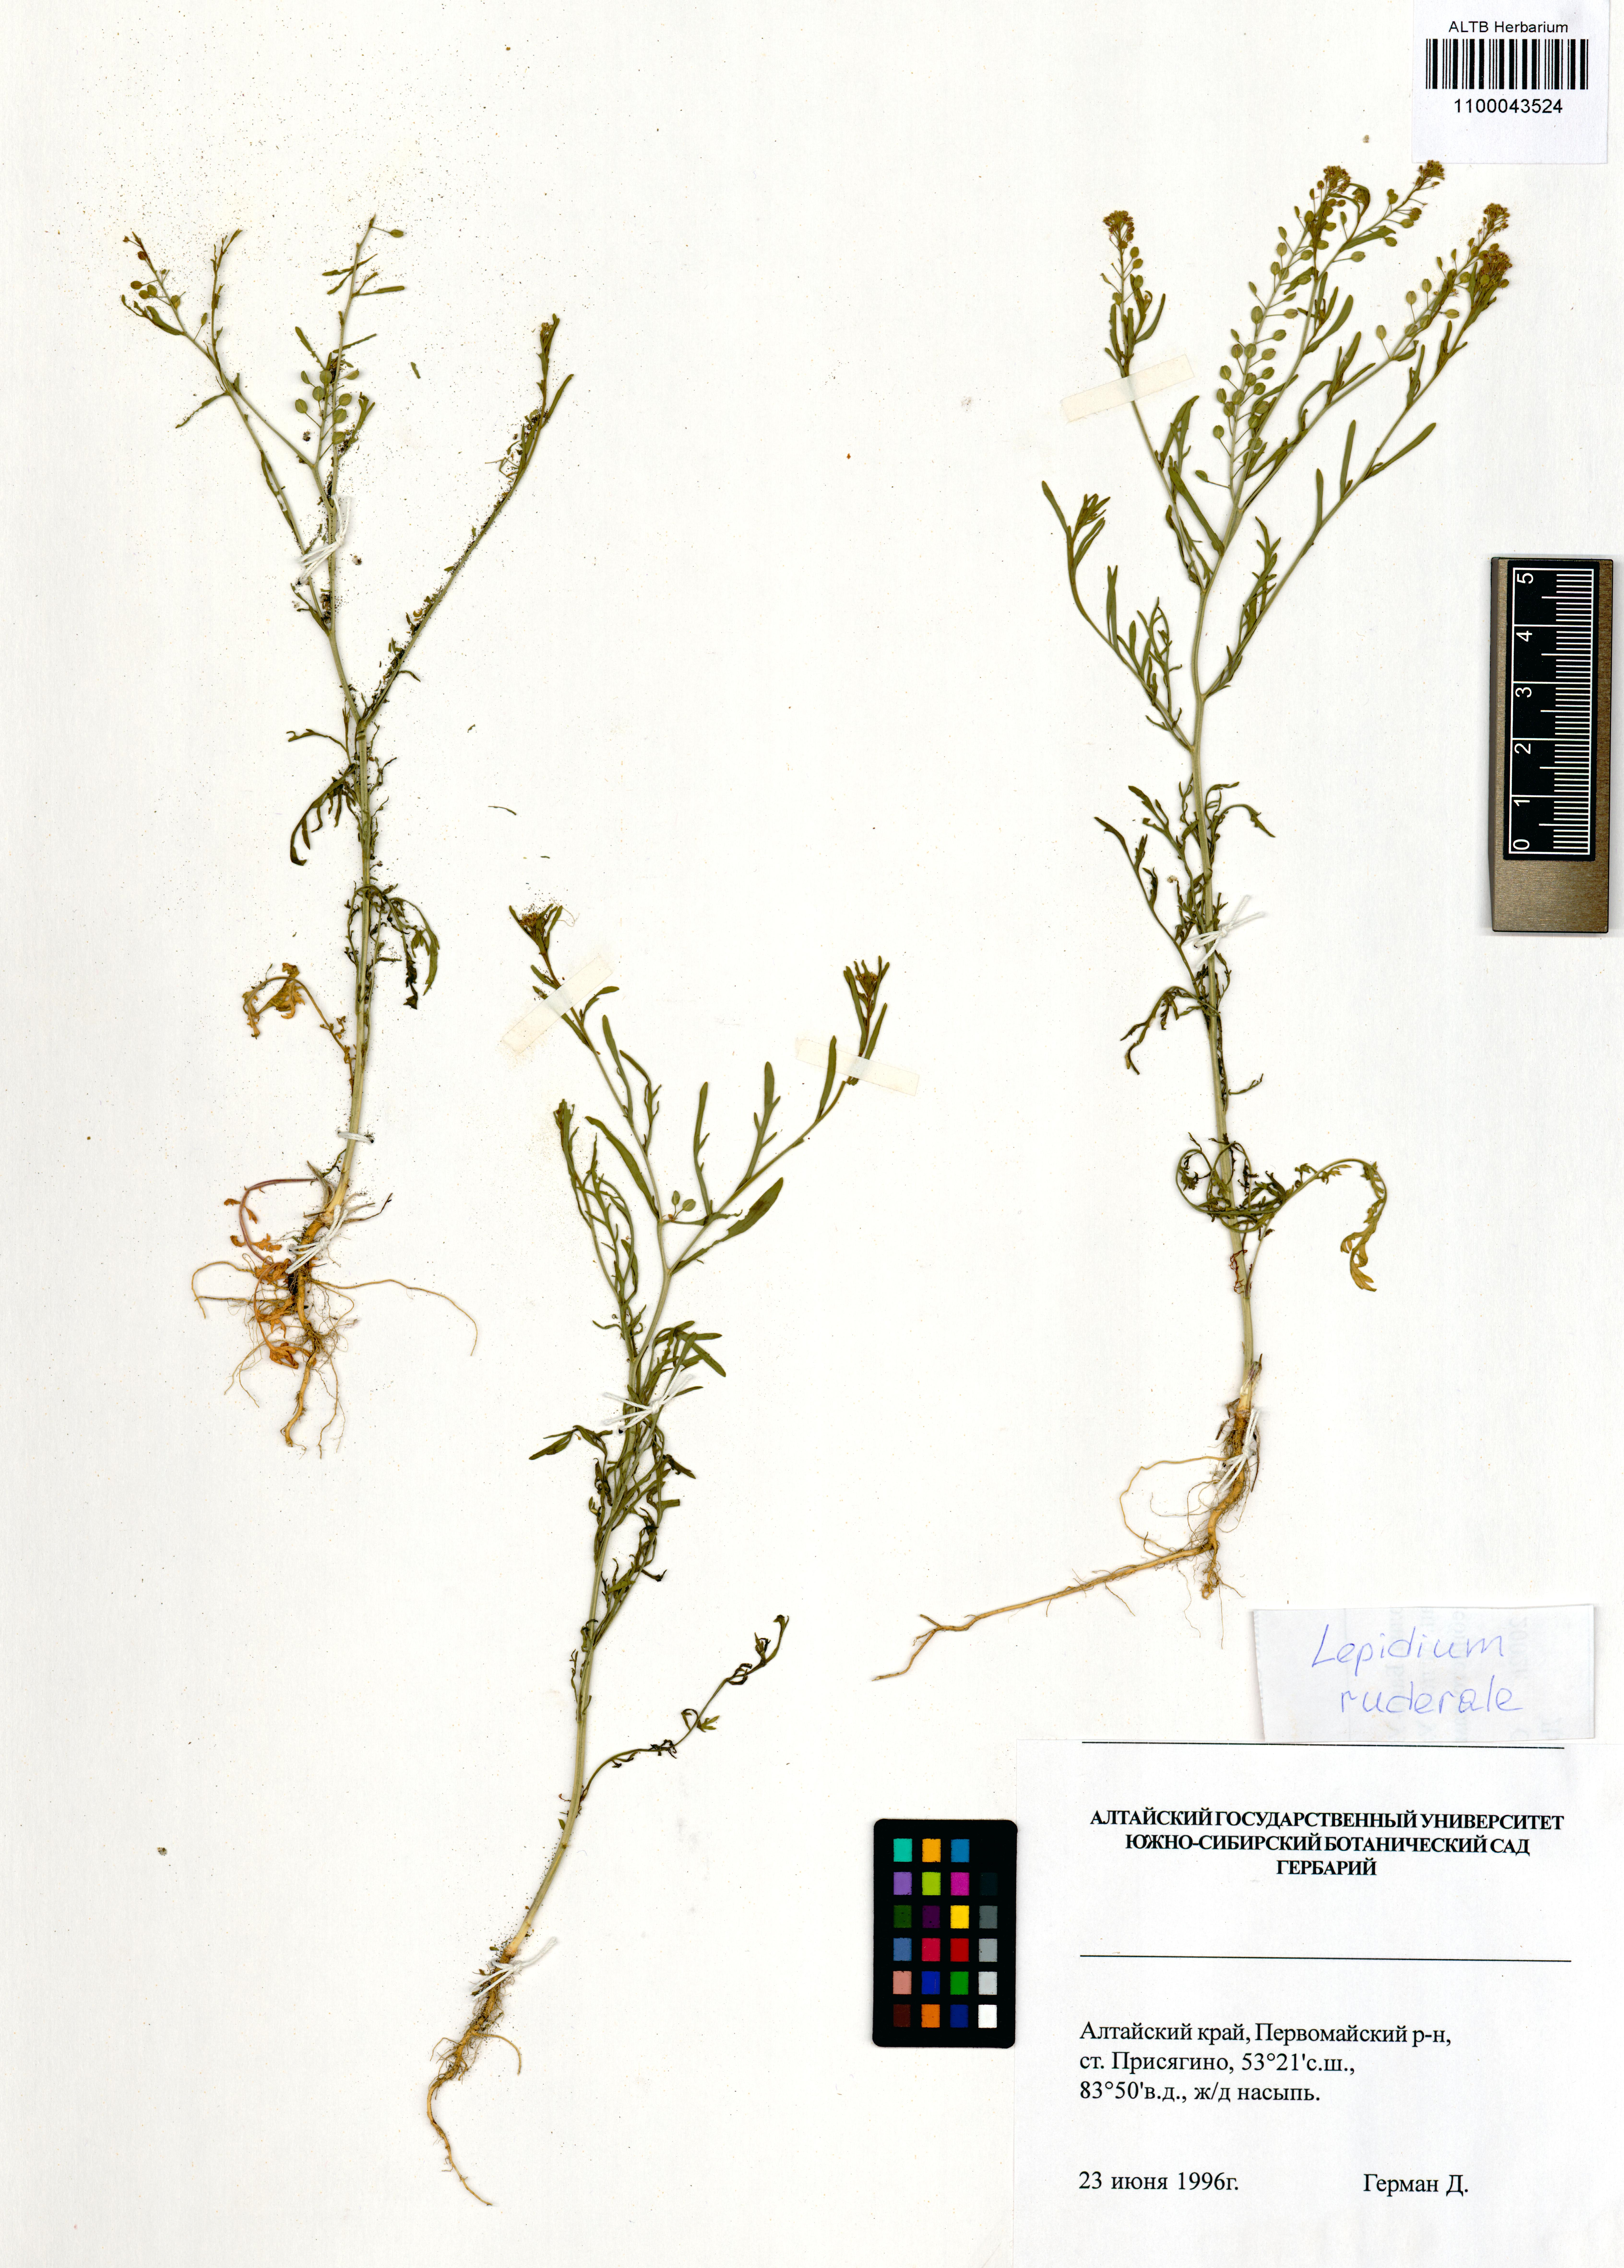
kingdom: Plantae
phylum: Tracheophyta
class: Magnoliopsida
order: Brassicales
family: Brassicaceae
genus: Lepidium
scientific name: Lepidium ruderale
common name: Narrow-leaved pepperwort
